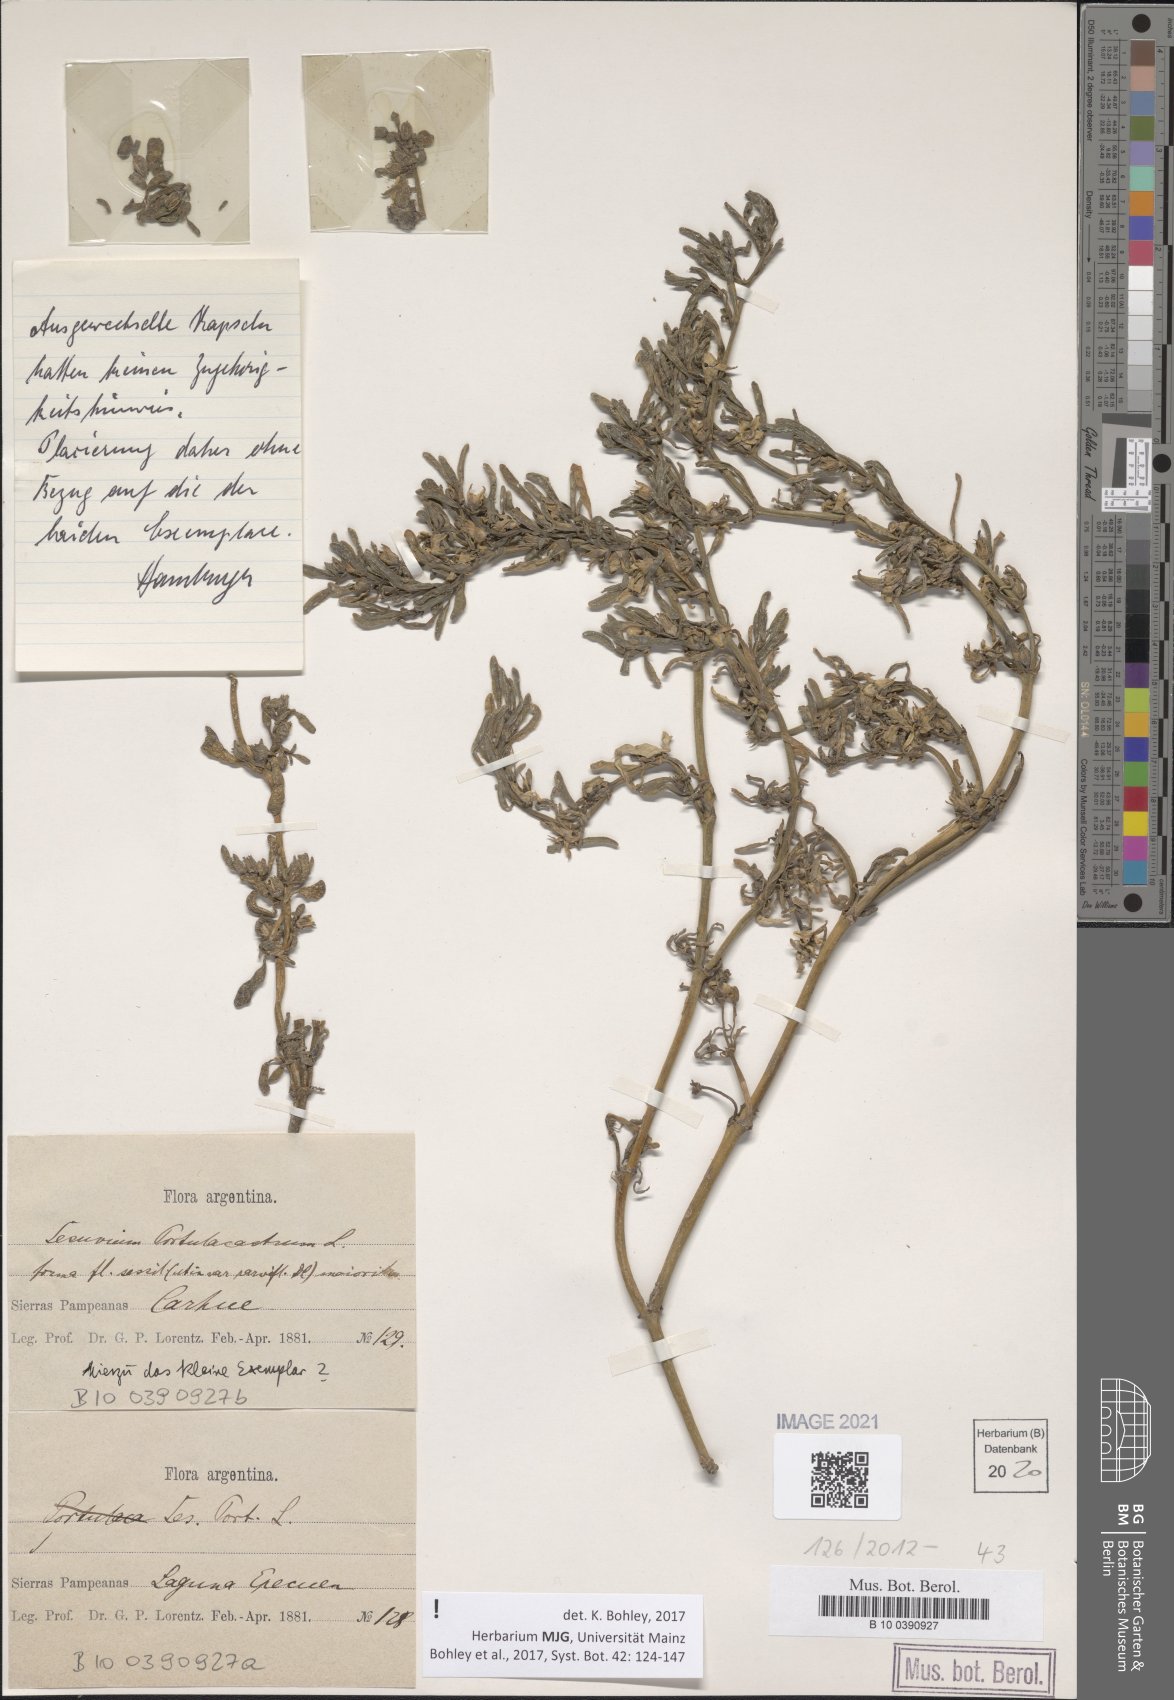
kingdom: Plantae
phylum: Tracheophyta
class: Magnoliopsida
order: Caryophyllales
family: Aizoaceae
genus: Sesuvium
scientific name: Sesuvium portulacastrum
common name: Sea-purslane
